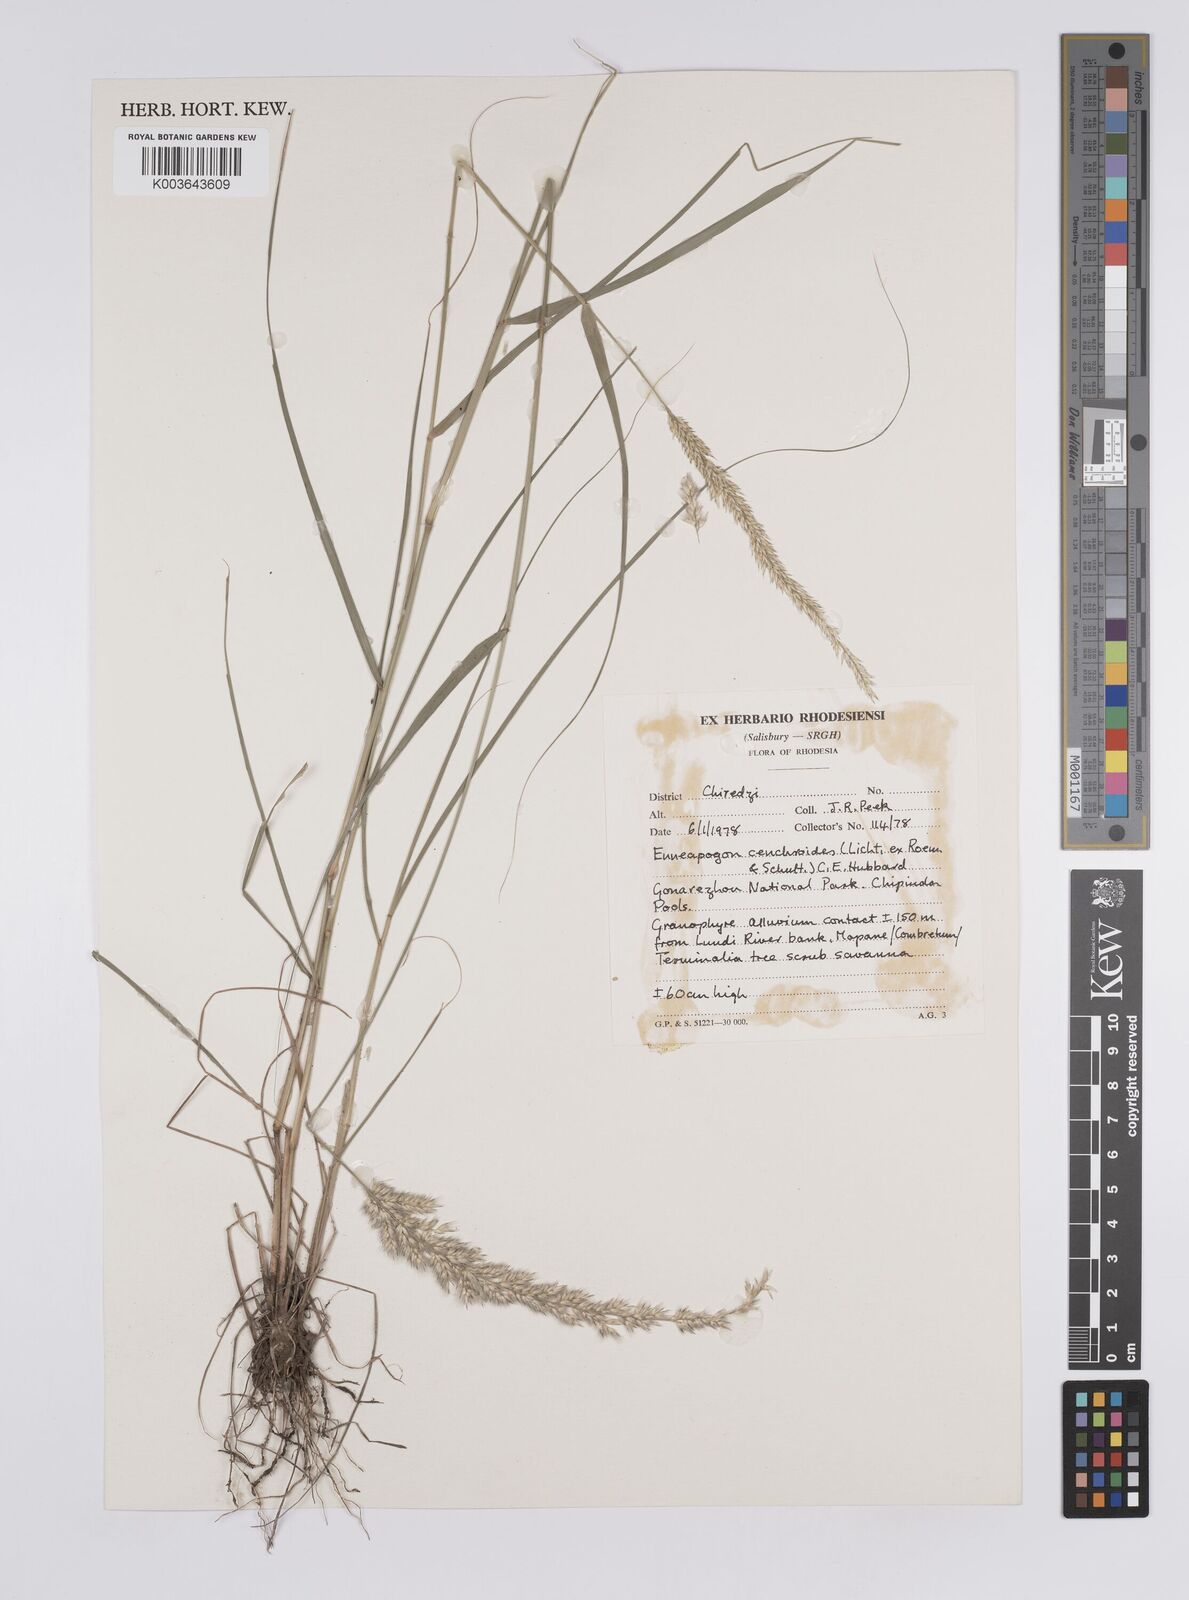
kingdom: Plantae
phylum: Tracheophyta
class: Liliopsida
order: Poales
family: Poaceae
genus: Enneapogon
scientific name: Enneapogon cenchroides
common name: Soft feather pappusgrass
